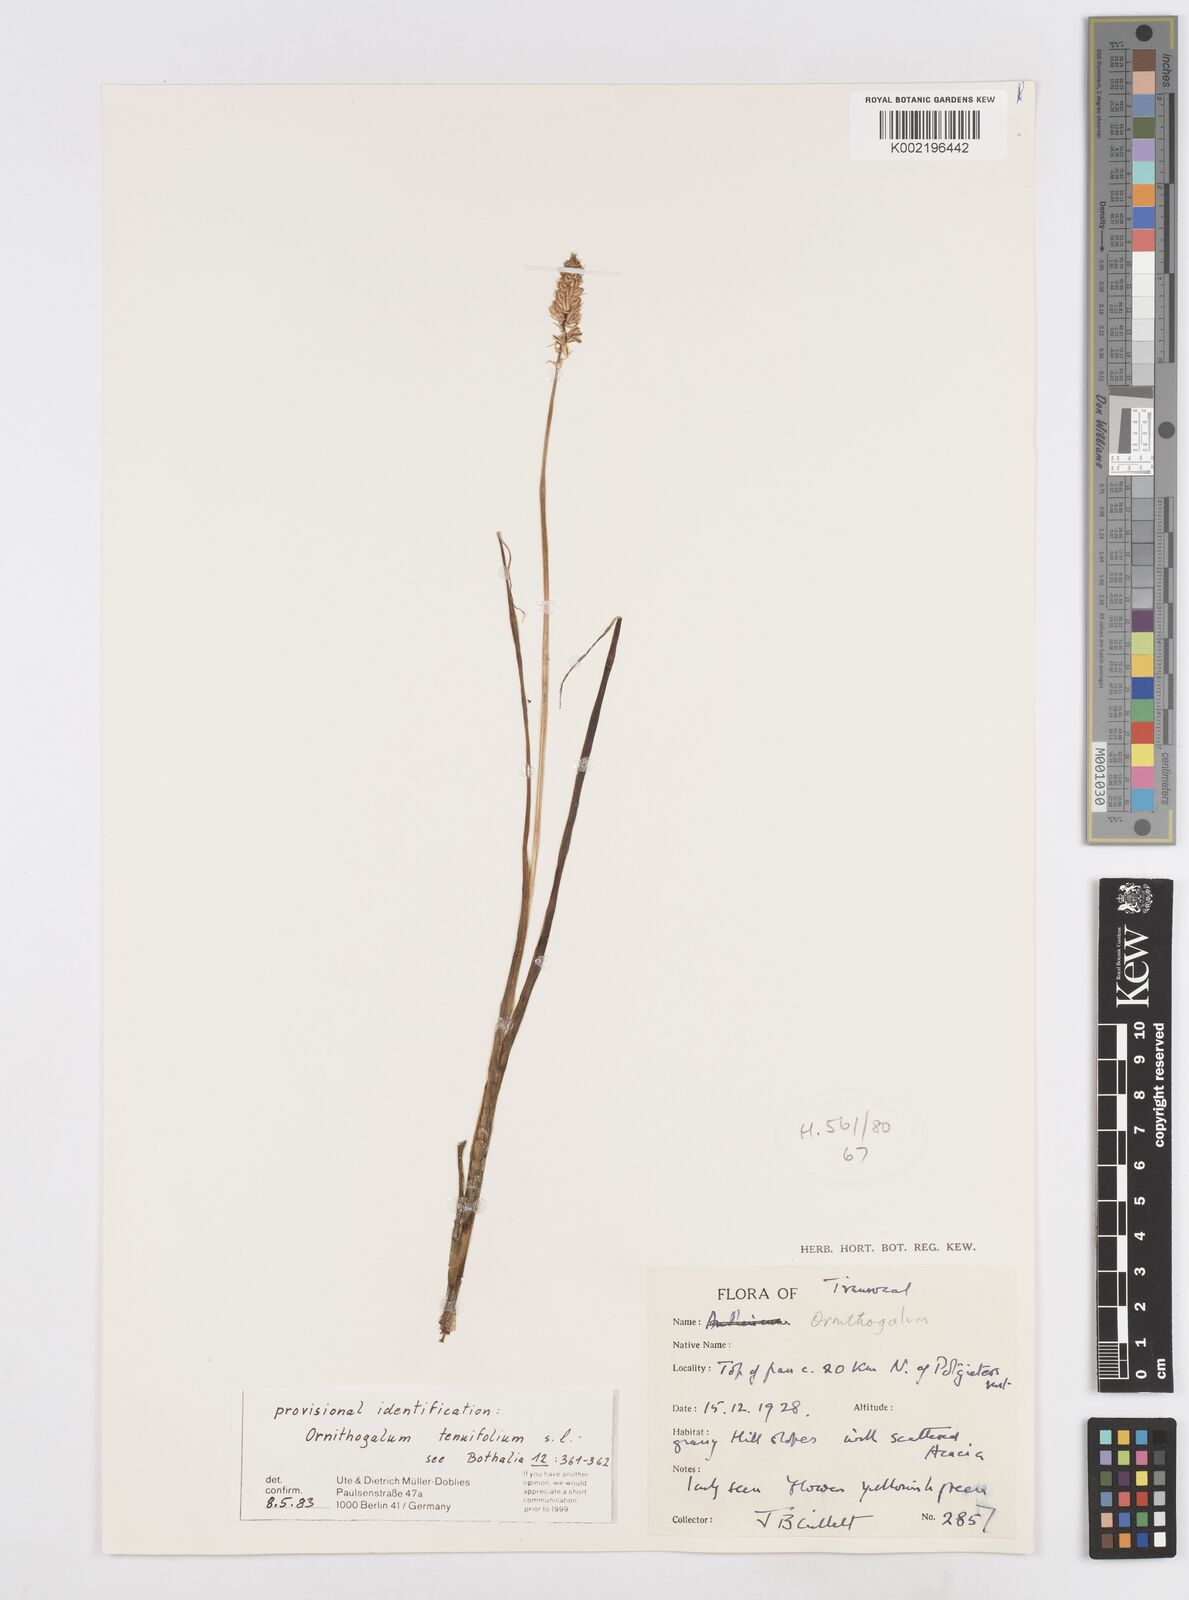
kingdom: Plantae
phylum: Tracheophyta
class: Liliopsida
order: Asparagales
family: Asparagaceae
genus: Albuca
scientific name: Albuca virens
